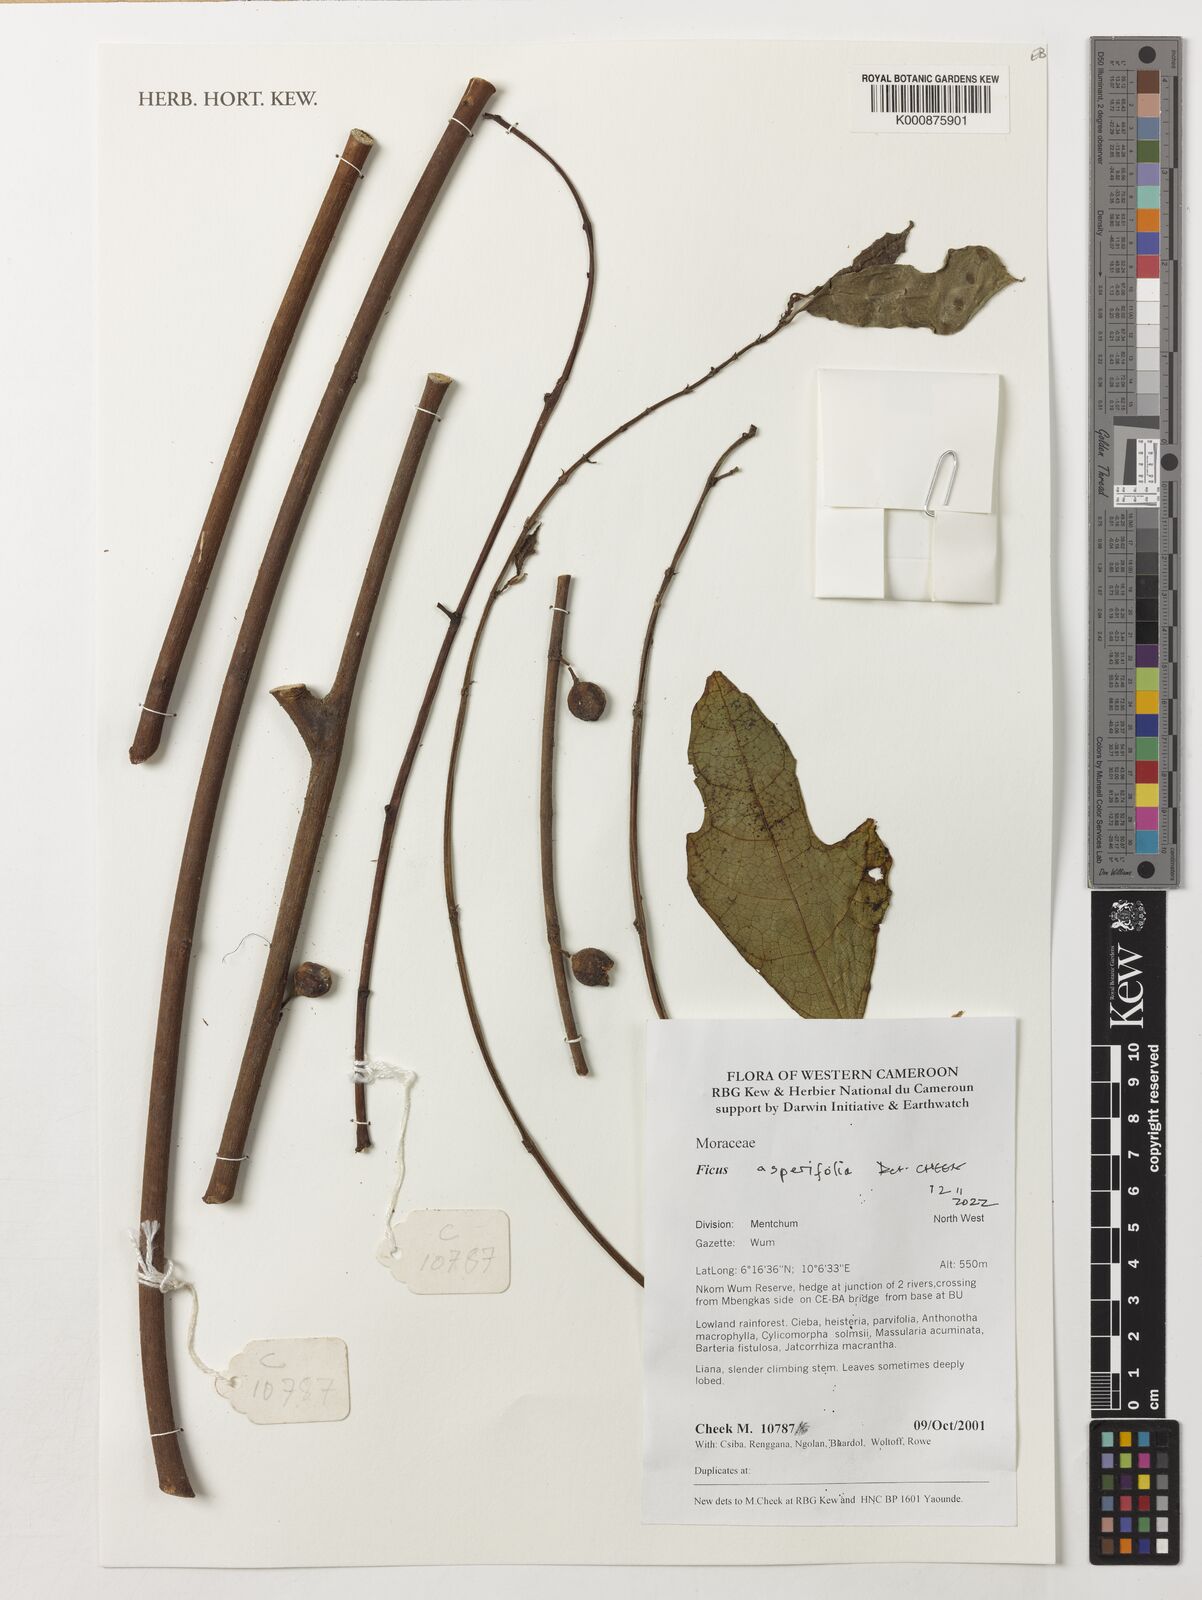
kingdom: Plantae
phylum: Tracheophyta
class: Magnoliopsida
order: Rosales
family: Moraceae
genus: Ficus
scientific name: Ficus asperifolia
